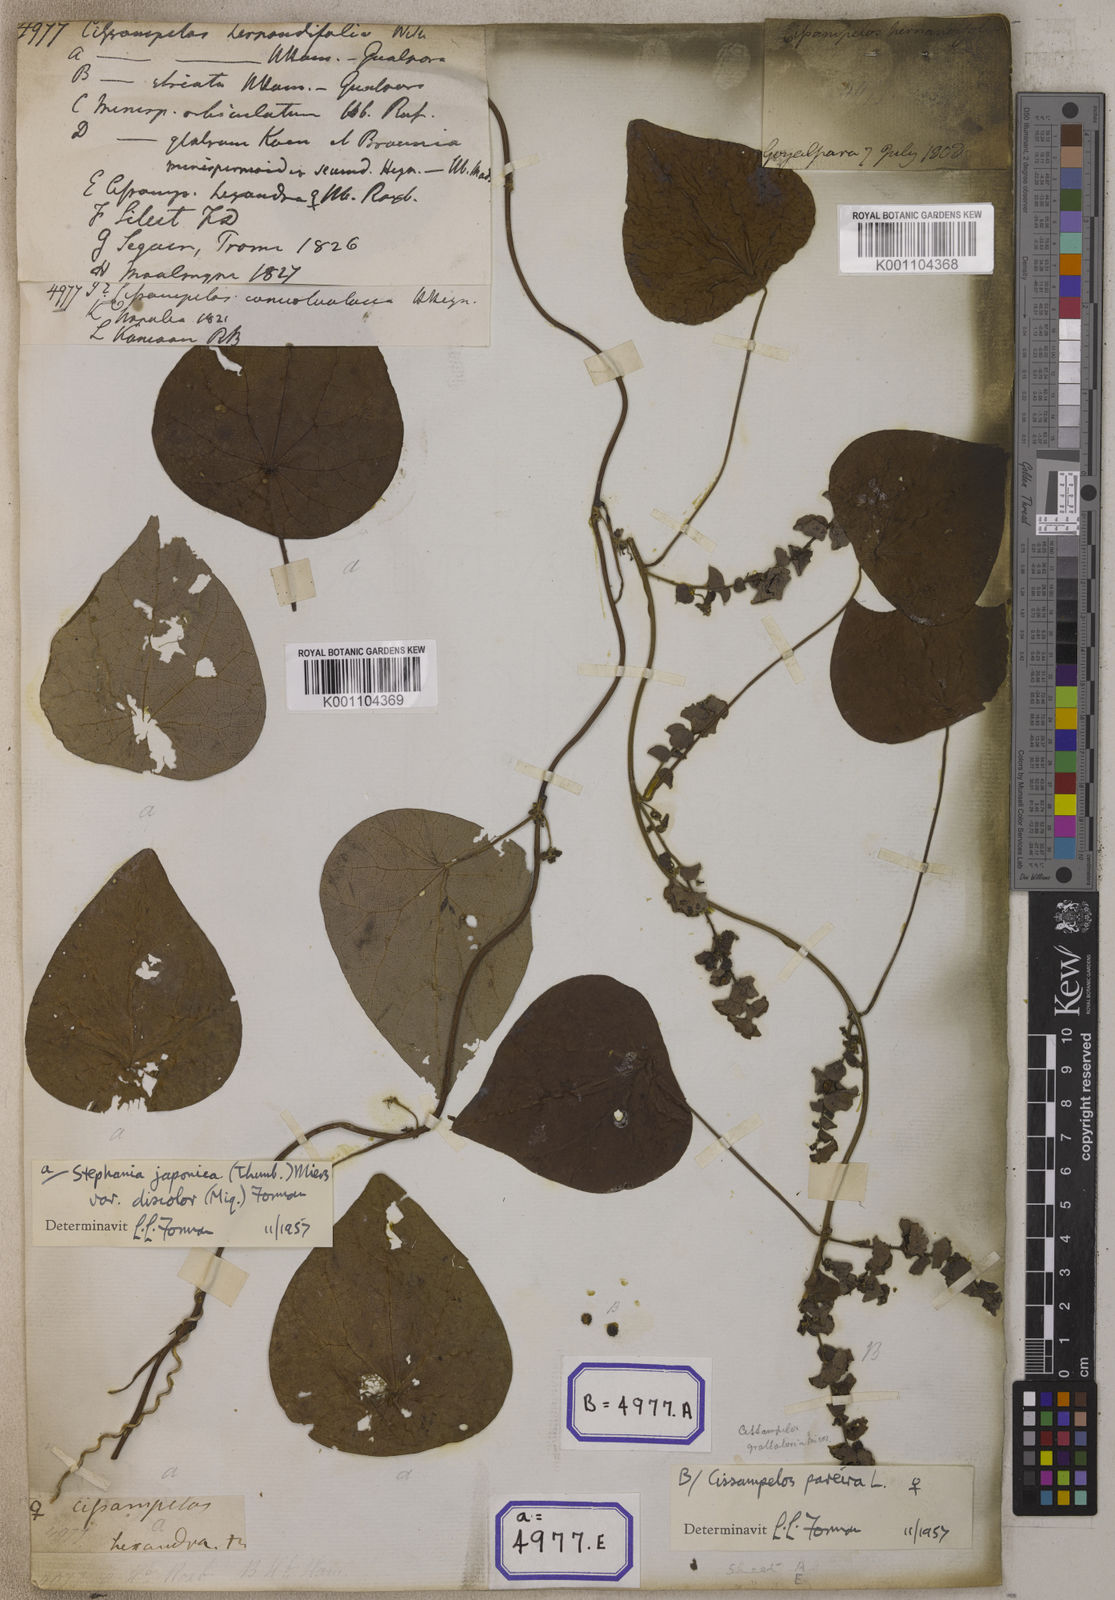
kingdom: Plantae
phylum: Tracheophyta
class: Magnoliopsida
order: Ranunculales
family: Menispermaceae
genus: Stephania
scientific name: Stephania japonica
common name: Snake vine
